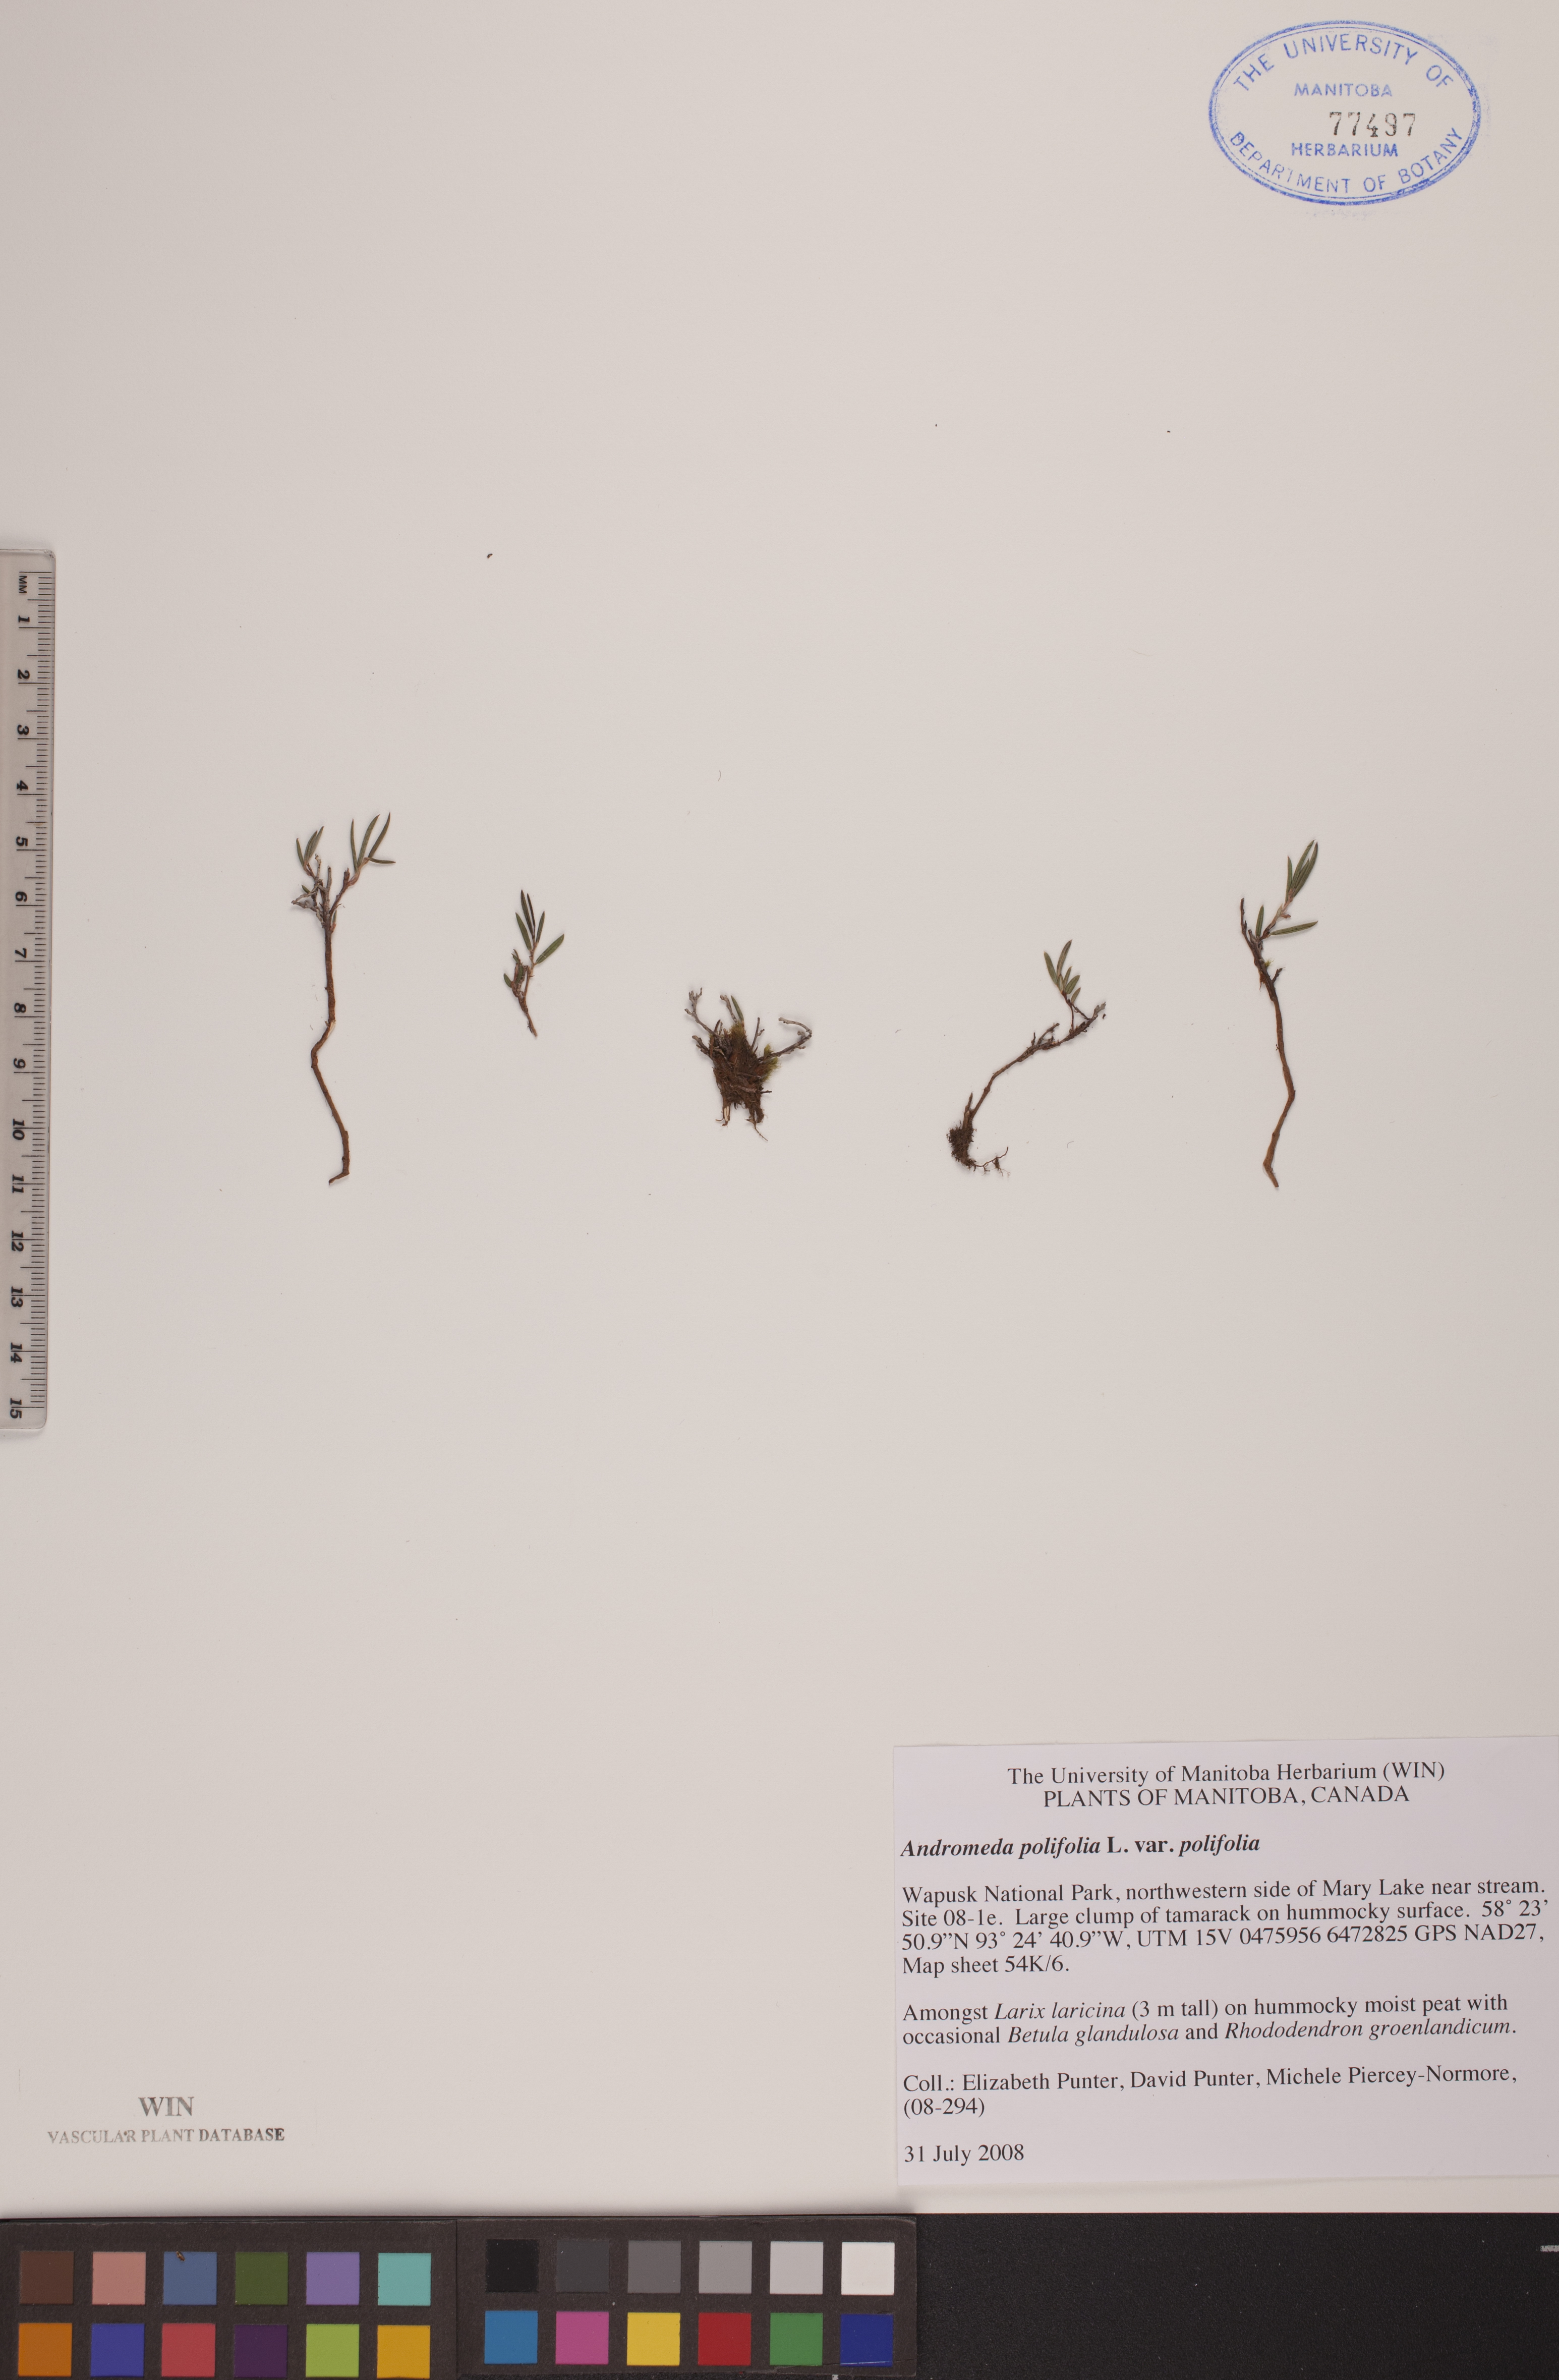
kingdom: Plantae
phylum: Tracheophyta
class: Magnoliopsida
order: Ericales
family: Ericaceae
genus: Andromeda
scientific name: Andromeda polifolia
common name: Bog-rosemary
